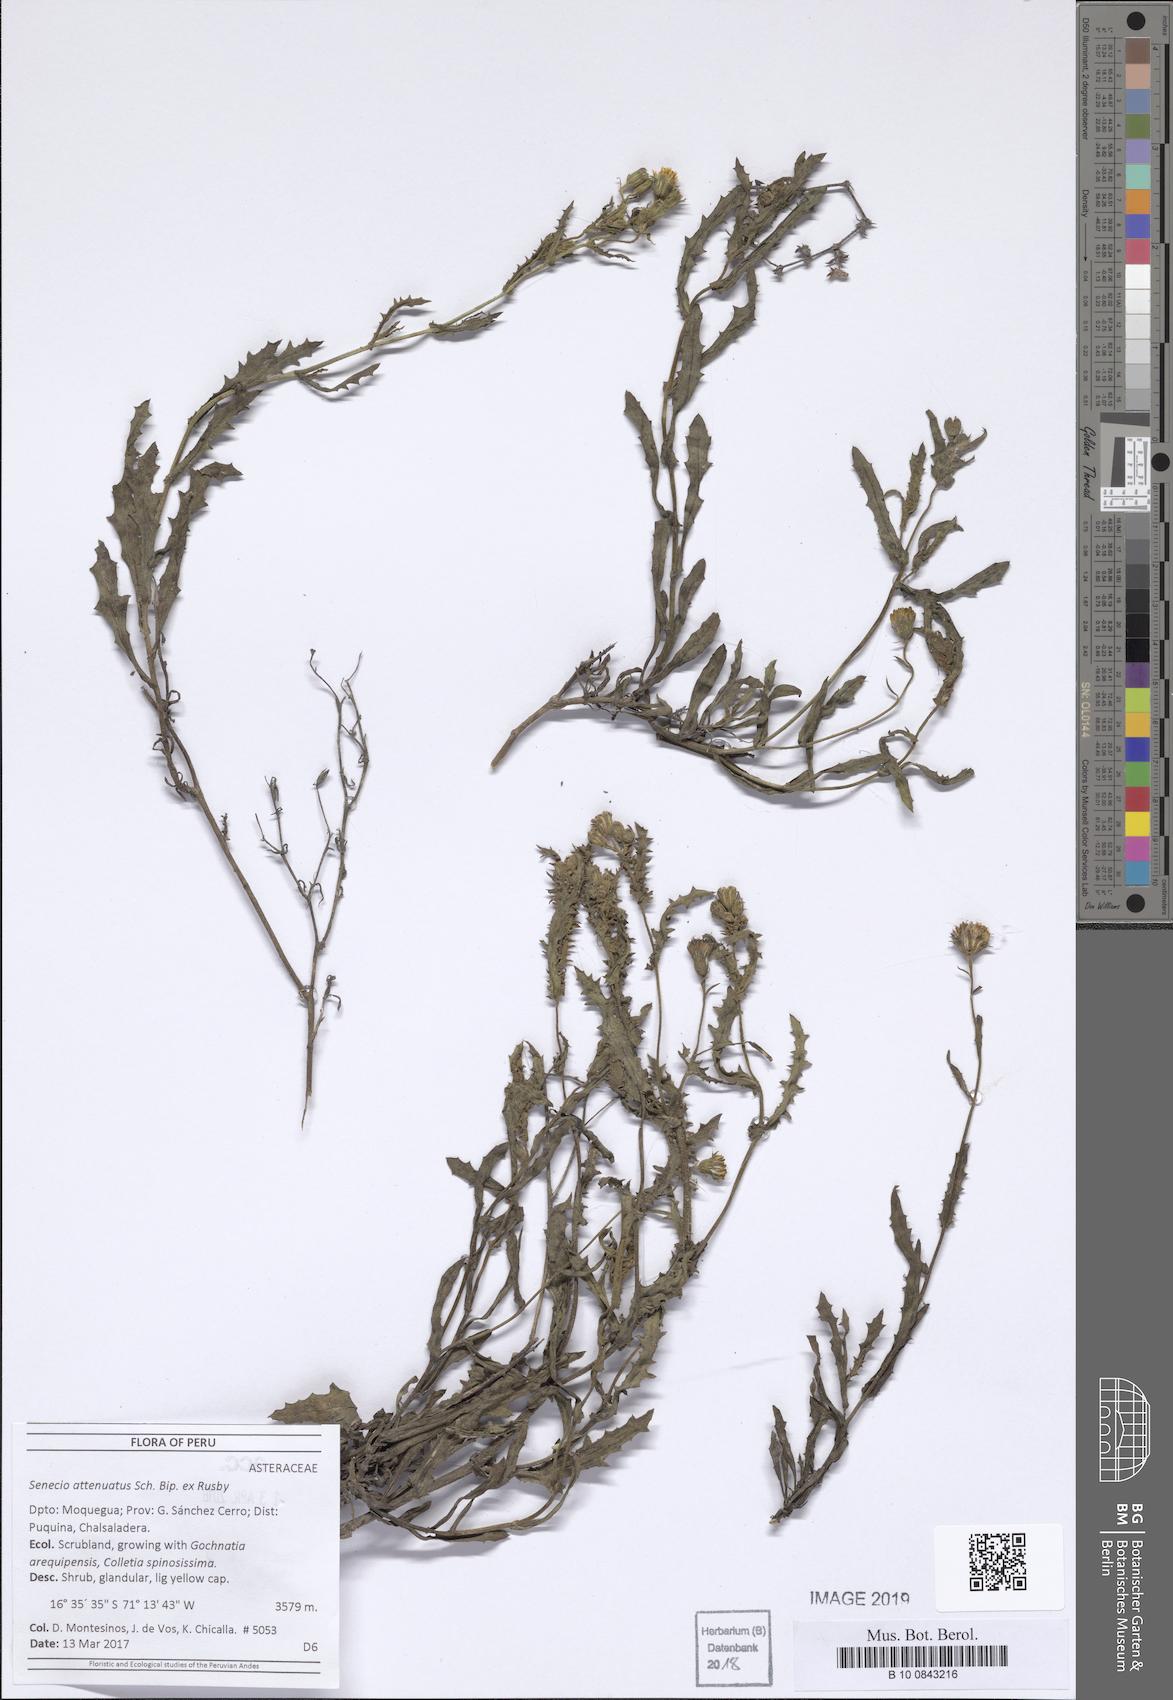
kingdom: Plantae
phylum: Tracheophyta
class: Magnoliopsida
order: Asterales
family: Asteraceae
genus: Senecio
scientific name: Senecio attenuatus
